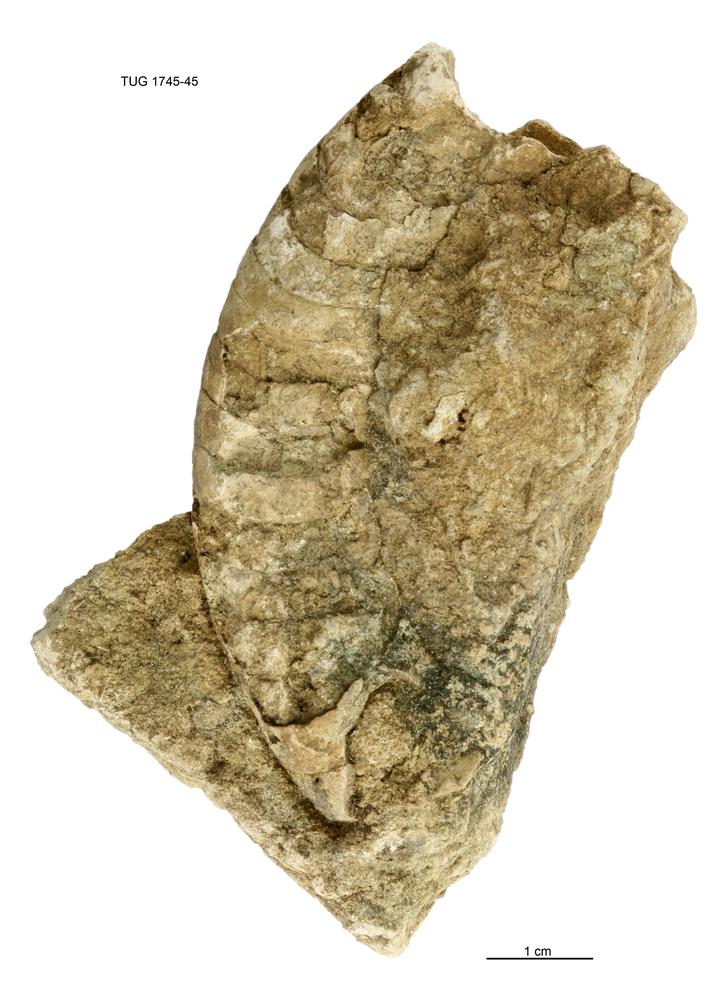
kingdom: Animalia
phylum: Mollusca
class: Cephalopoda
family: Estonioceratidae
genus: Tragoceras
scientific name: Tragoceras
